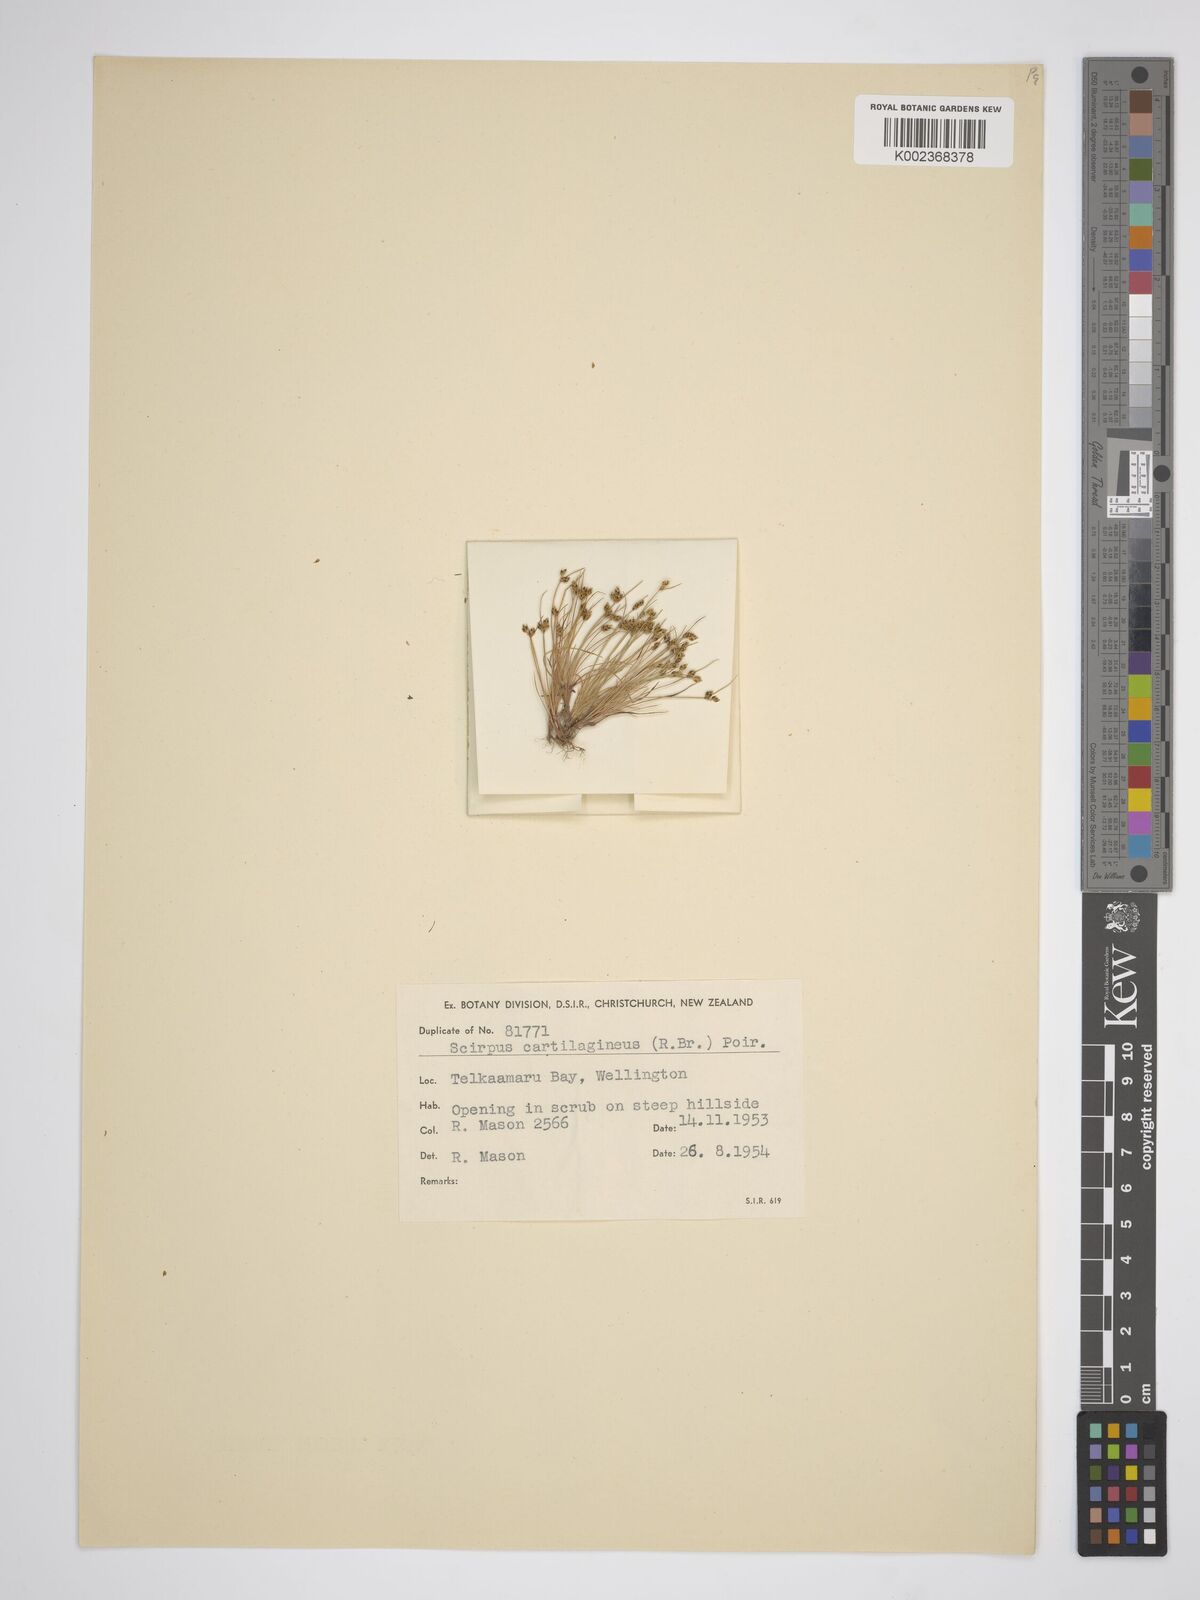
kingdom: Plantae
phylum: Tracheophyta
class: Liliopsida
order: Poales
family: Cyperaceae
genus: Isolepis
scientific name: Isolepis marginata
